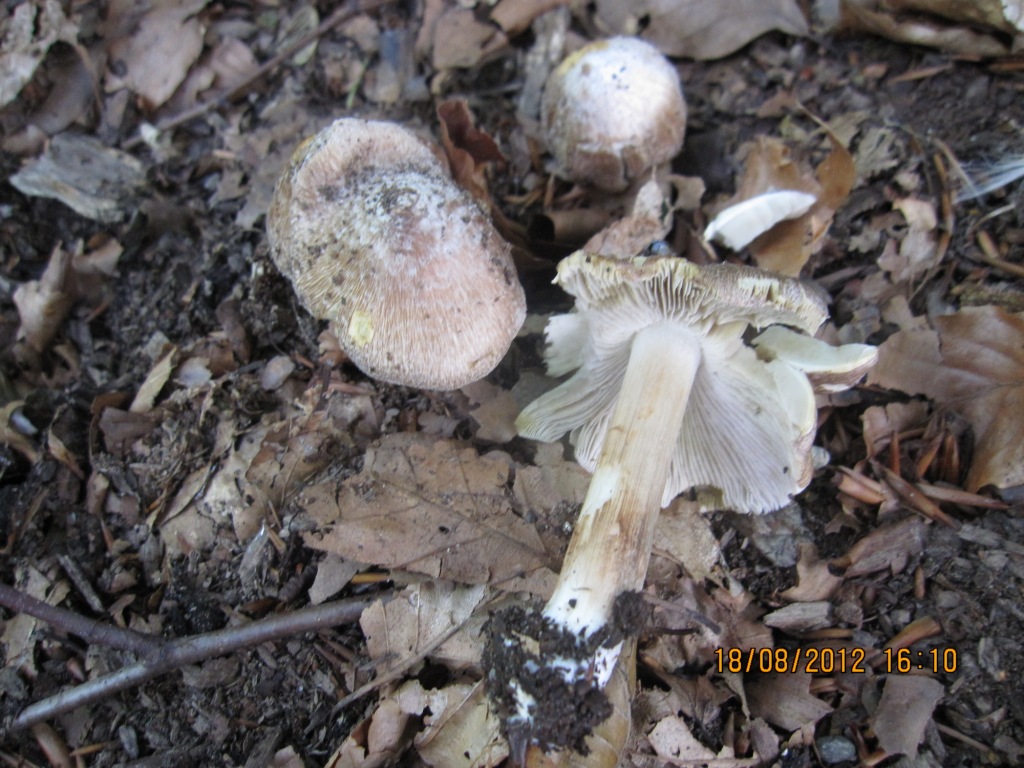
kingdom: Fungi
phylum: Basidiomycota
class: Agaricomycetes
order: Agaricales
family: Inocybaceae
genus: Inosperma
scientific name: Inosperma maculatum
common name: plettet trævlhat
